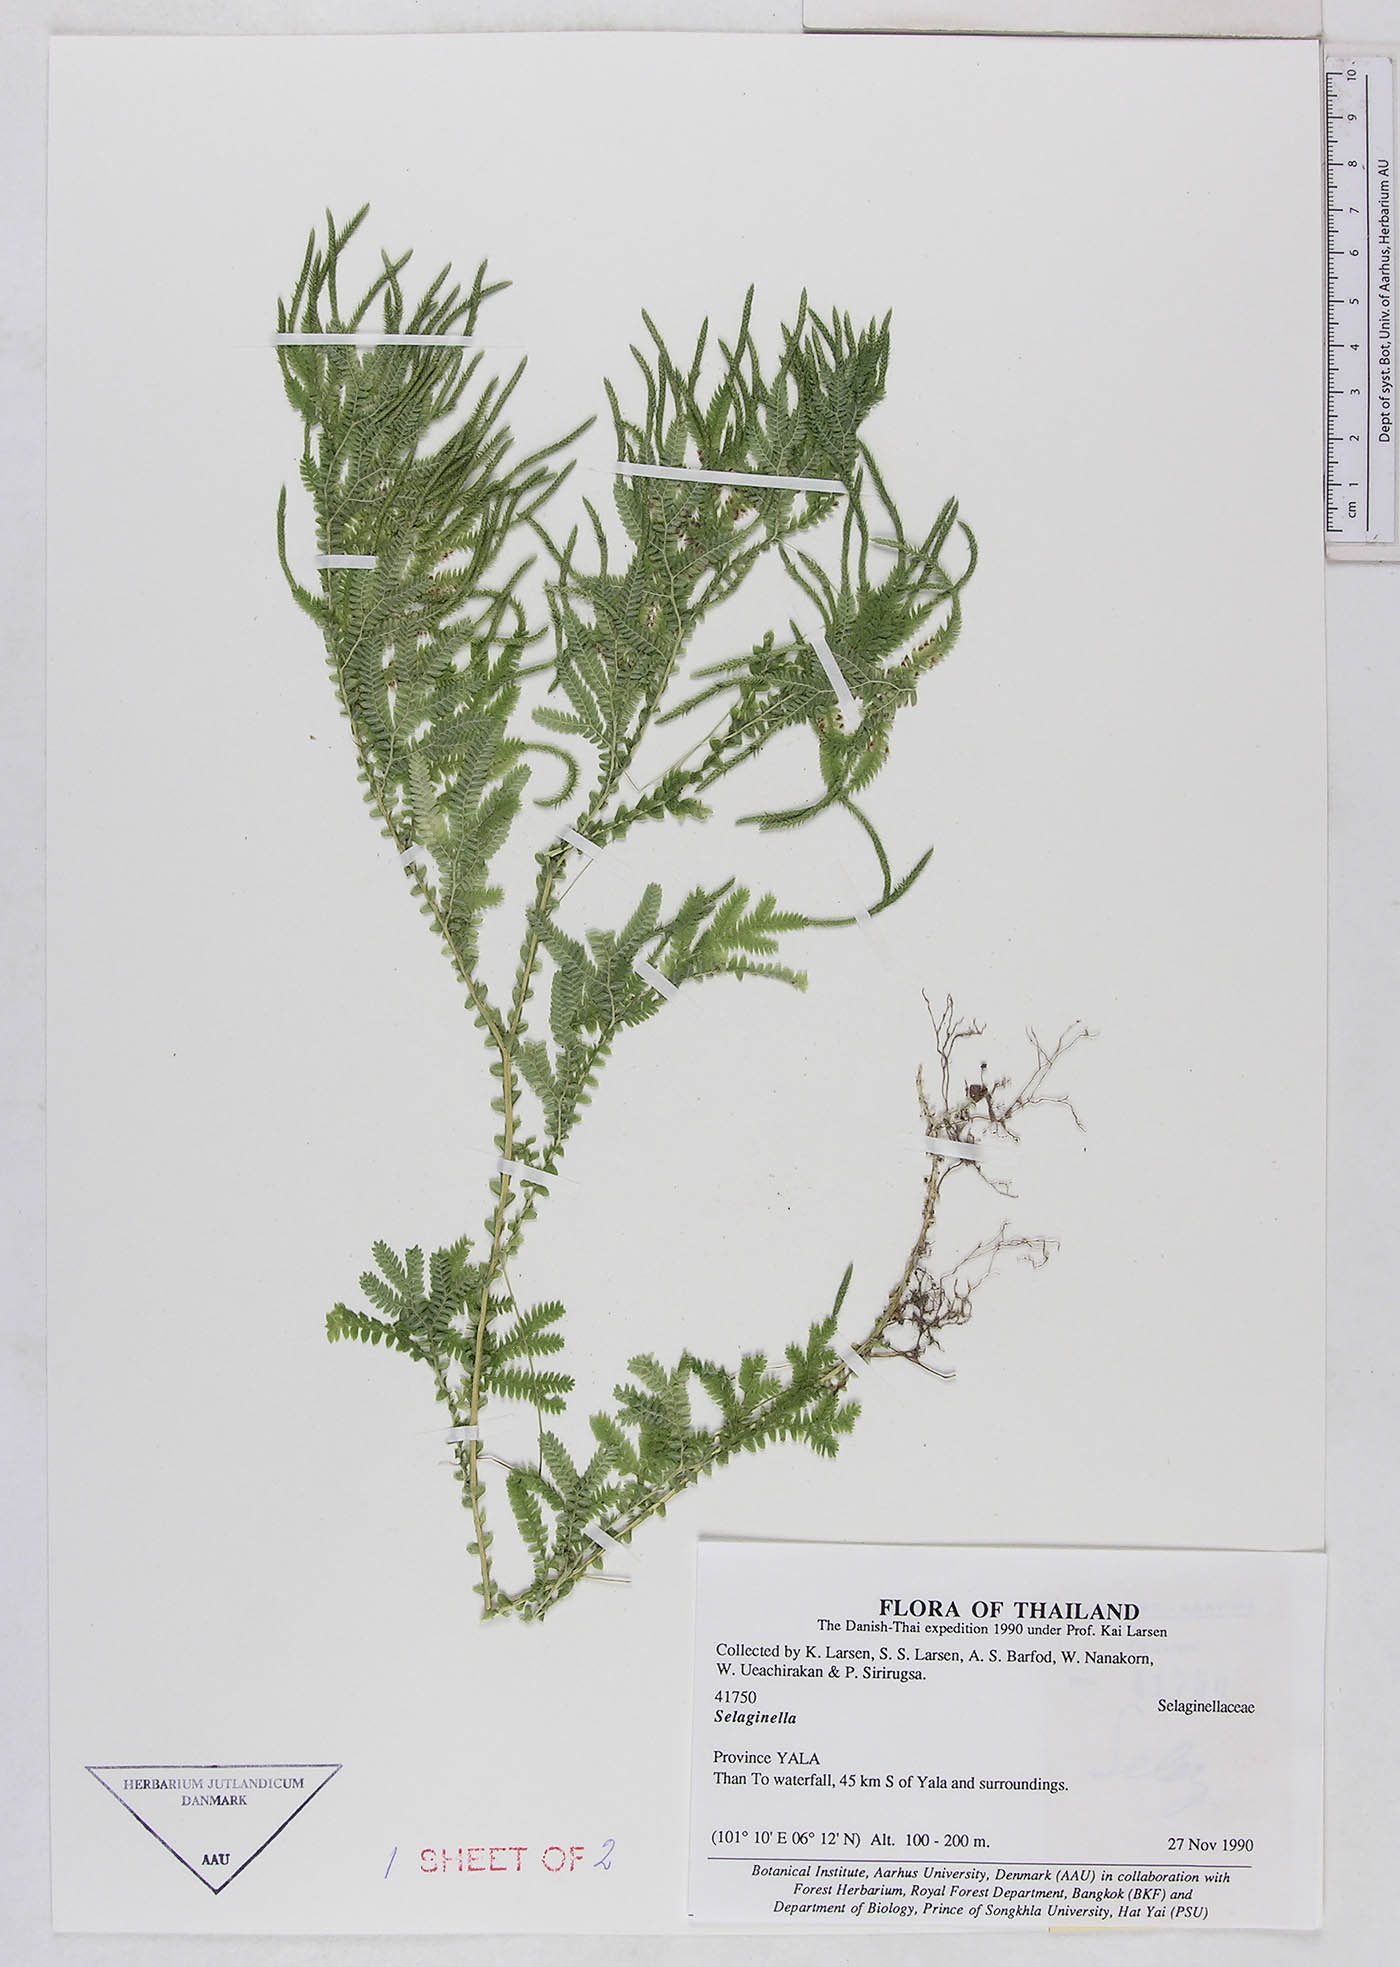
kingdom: Plantae
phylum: Tracheophyta
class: Lycopodiopsida
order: Selaginellales
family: Selaginellaceae
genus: Selaginella
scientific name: Selaginella
